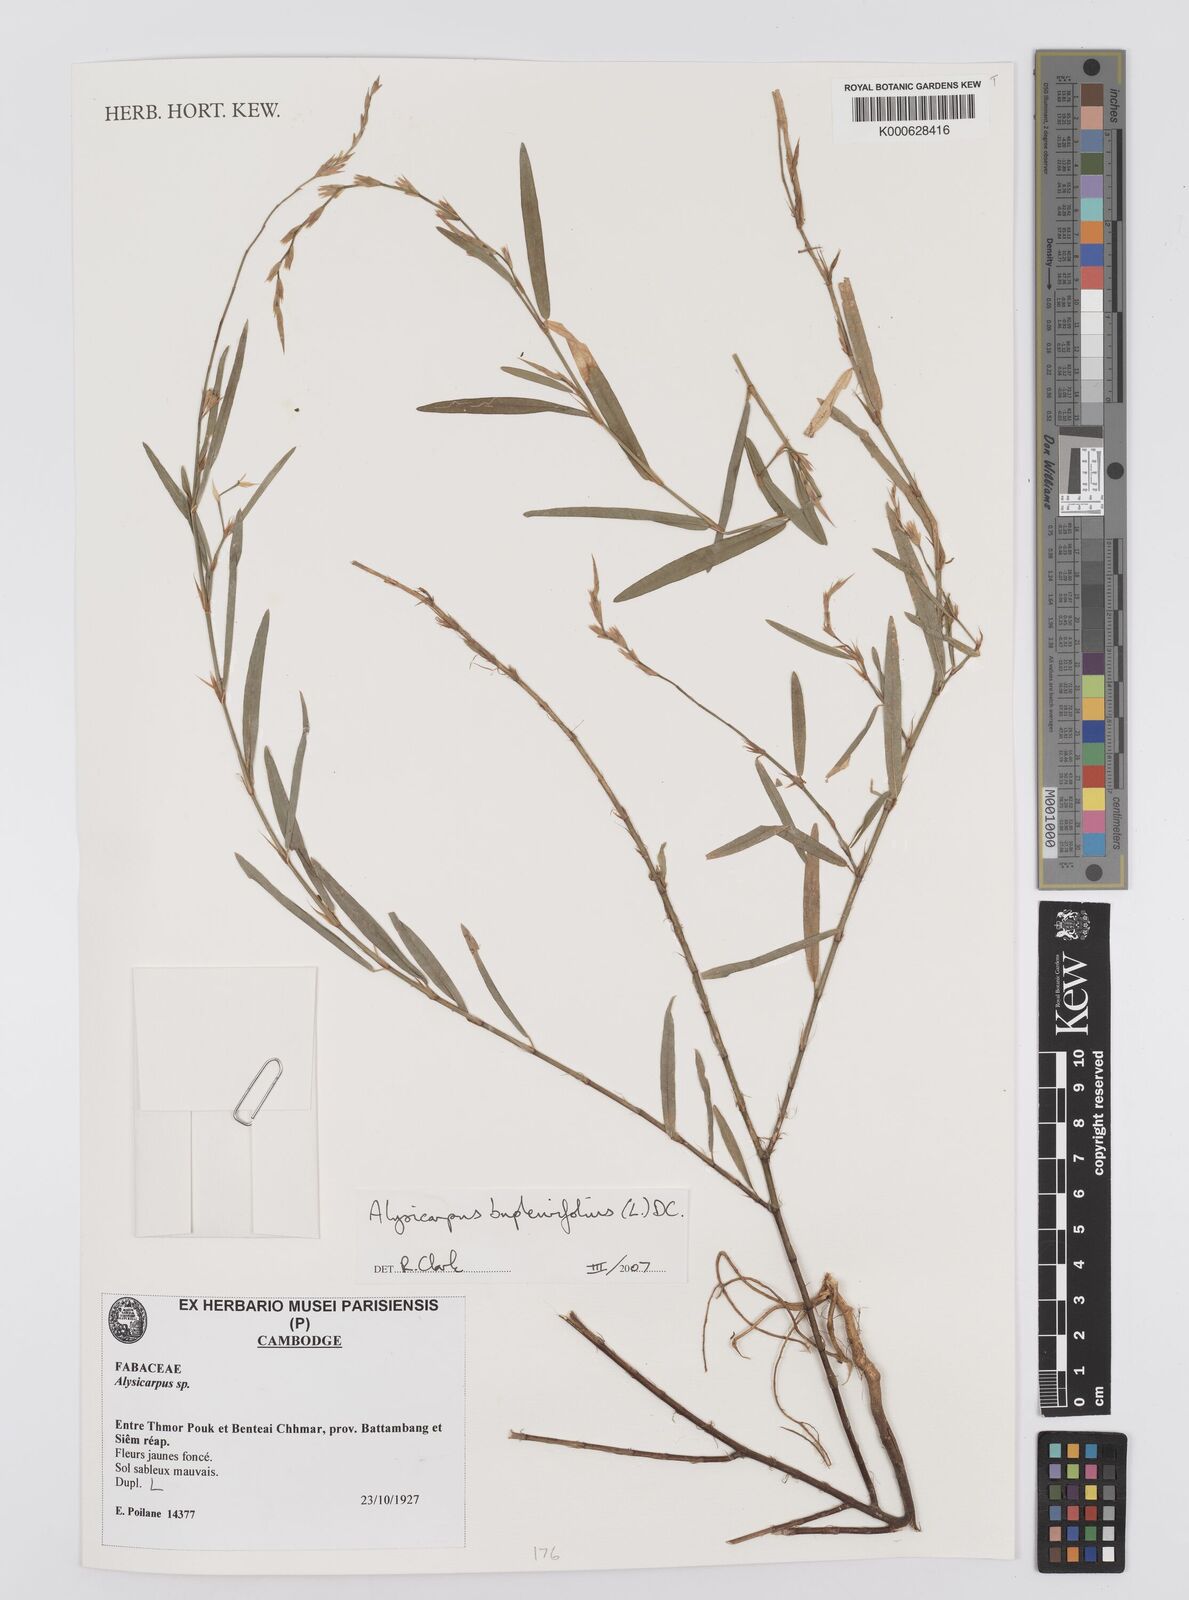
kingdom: Plantae
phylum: Tracheophyta
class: Magnoliopsida
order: Fabales
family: Fabaceae
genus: Alysicarpus
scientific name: Alysicarpus bupleurifolius
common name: Sweet alys
